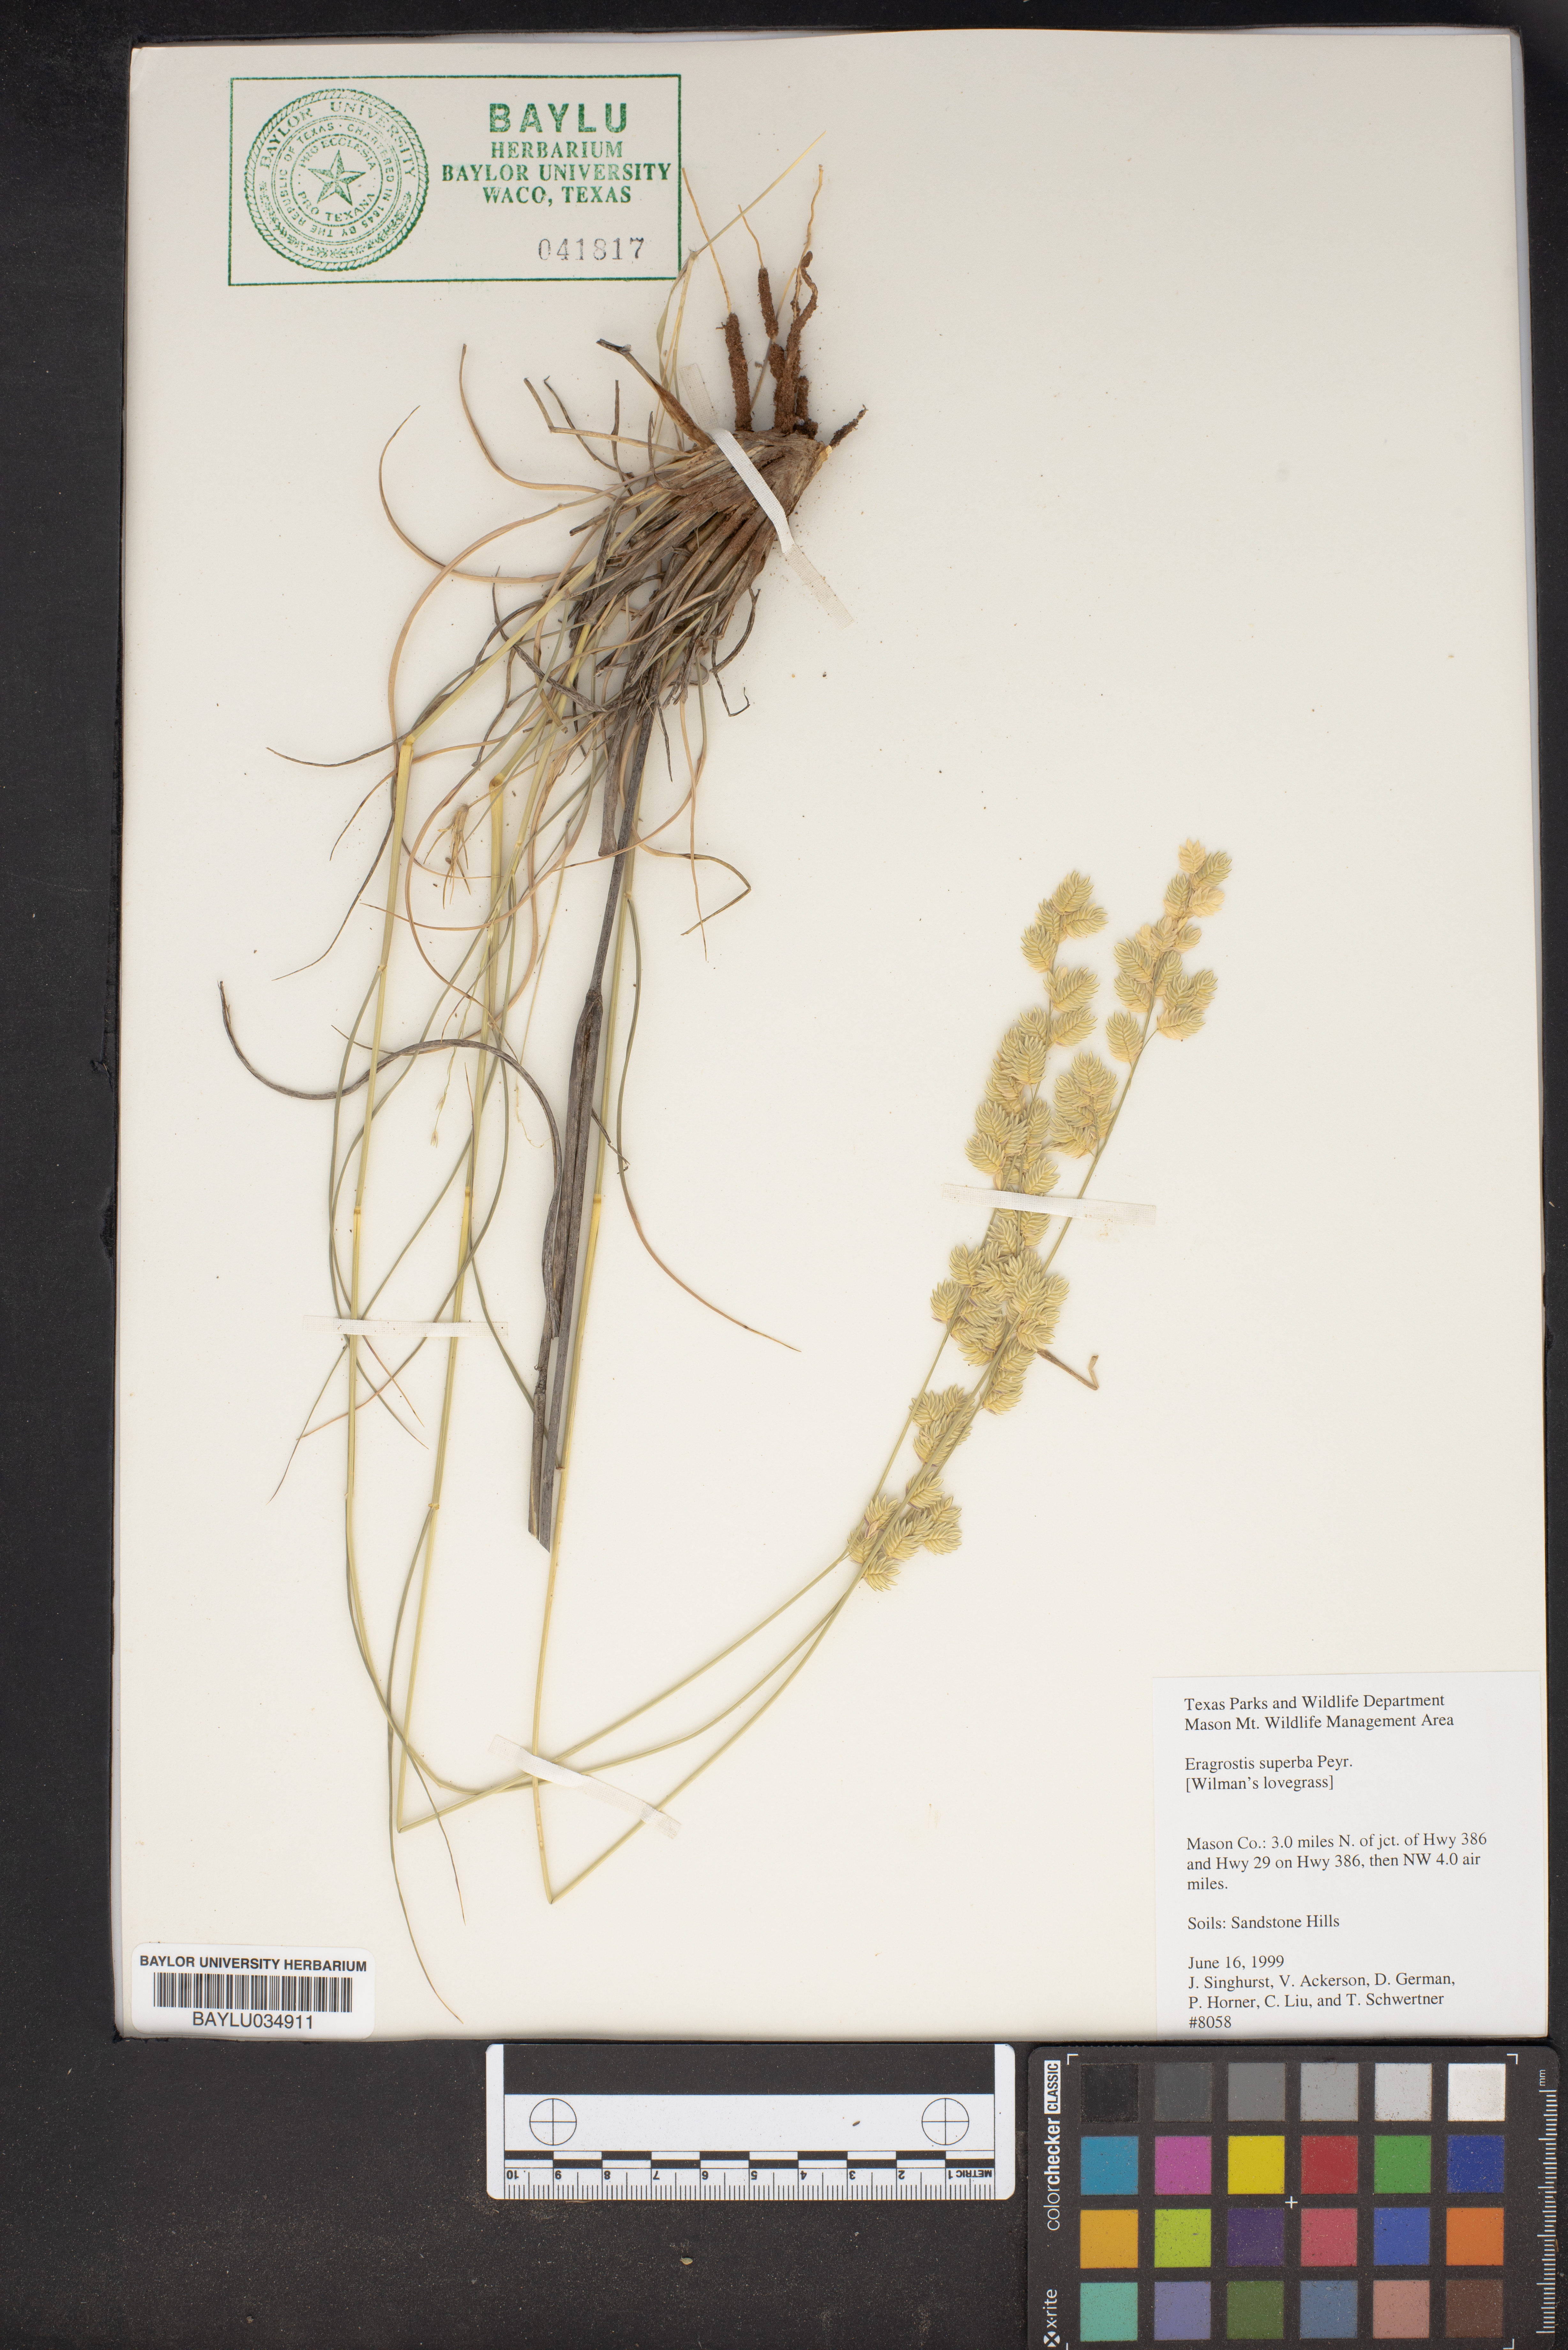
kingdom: Plantae
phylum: Tracheophyta
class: Liliopsida
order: Poales
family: Poaceae
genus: Eragrostis
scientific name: Eragrostis superba
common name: Wilman lovegrass
